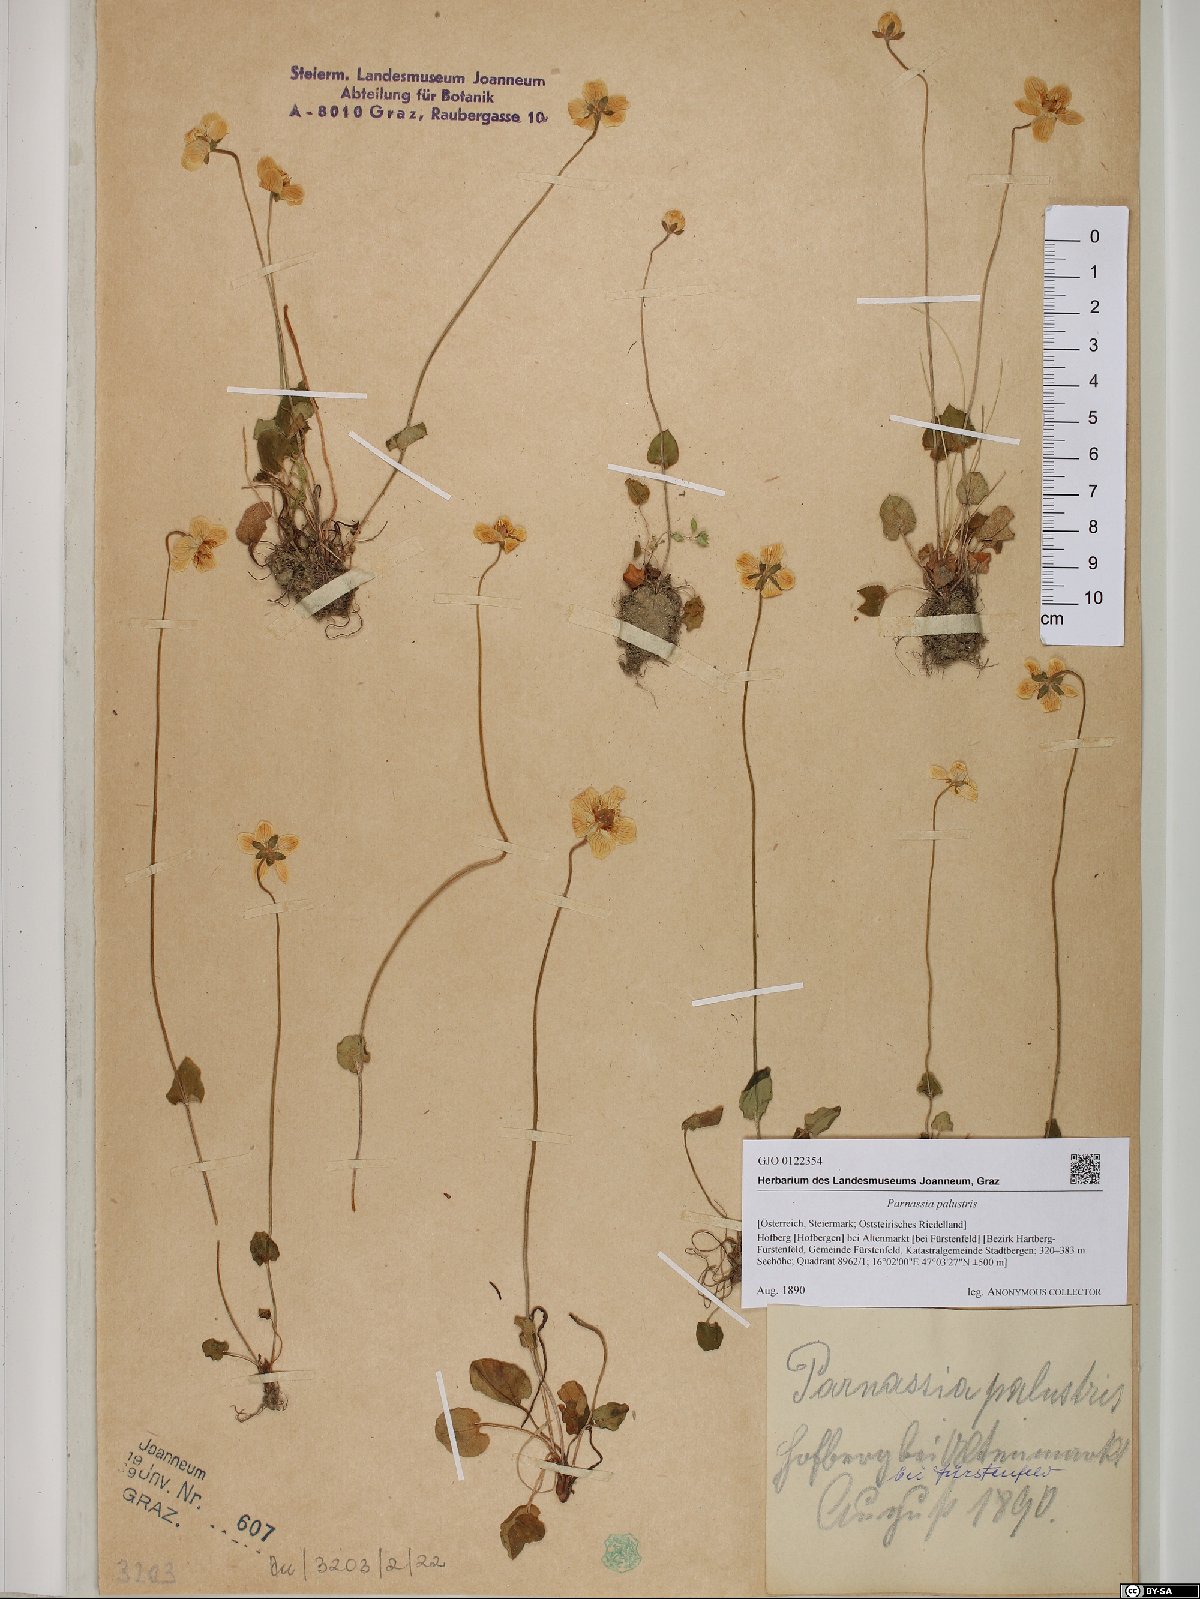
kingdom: Plantae
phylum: Tracheophyta
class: Magnoliopsida
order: Celastrales
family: Parnassiaceae
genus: Parnassia
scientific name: Parnassia palustris
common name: Grass-of-parnassus
